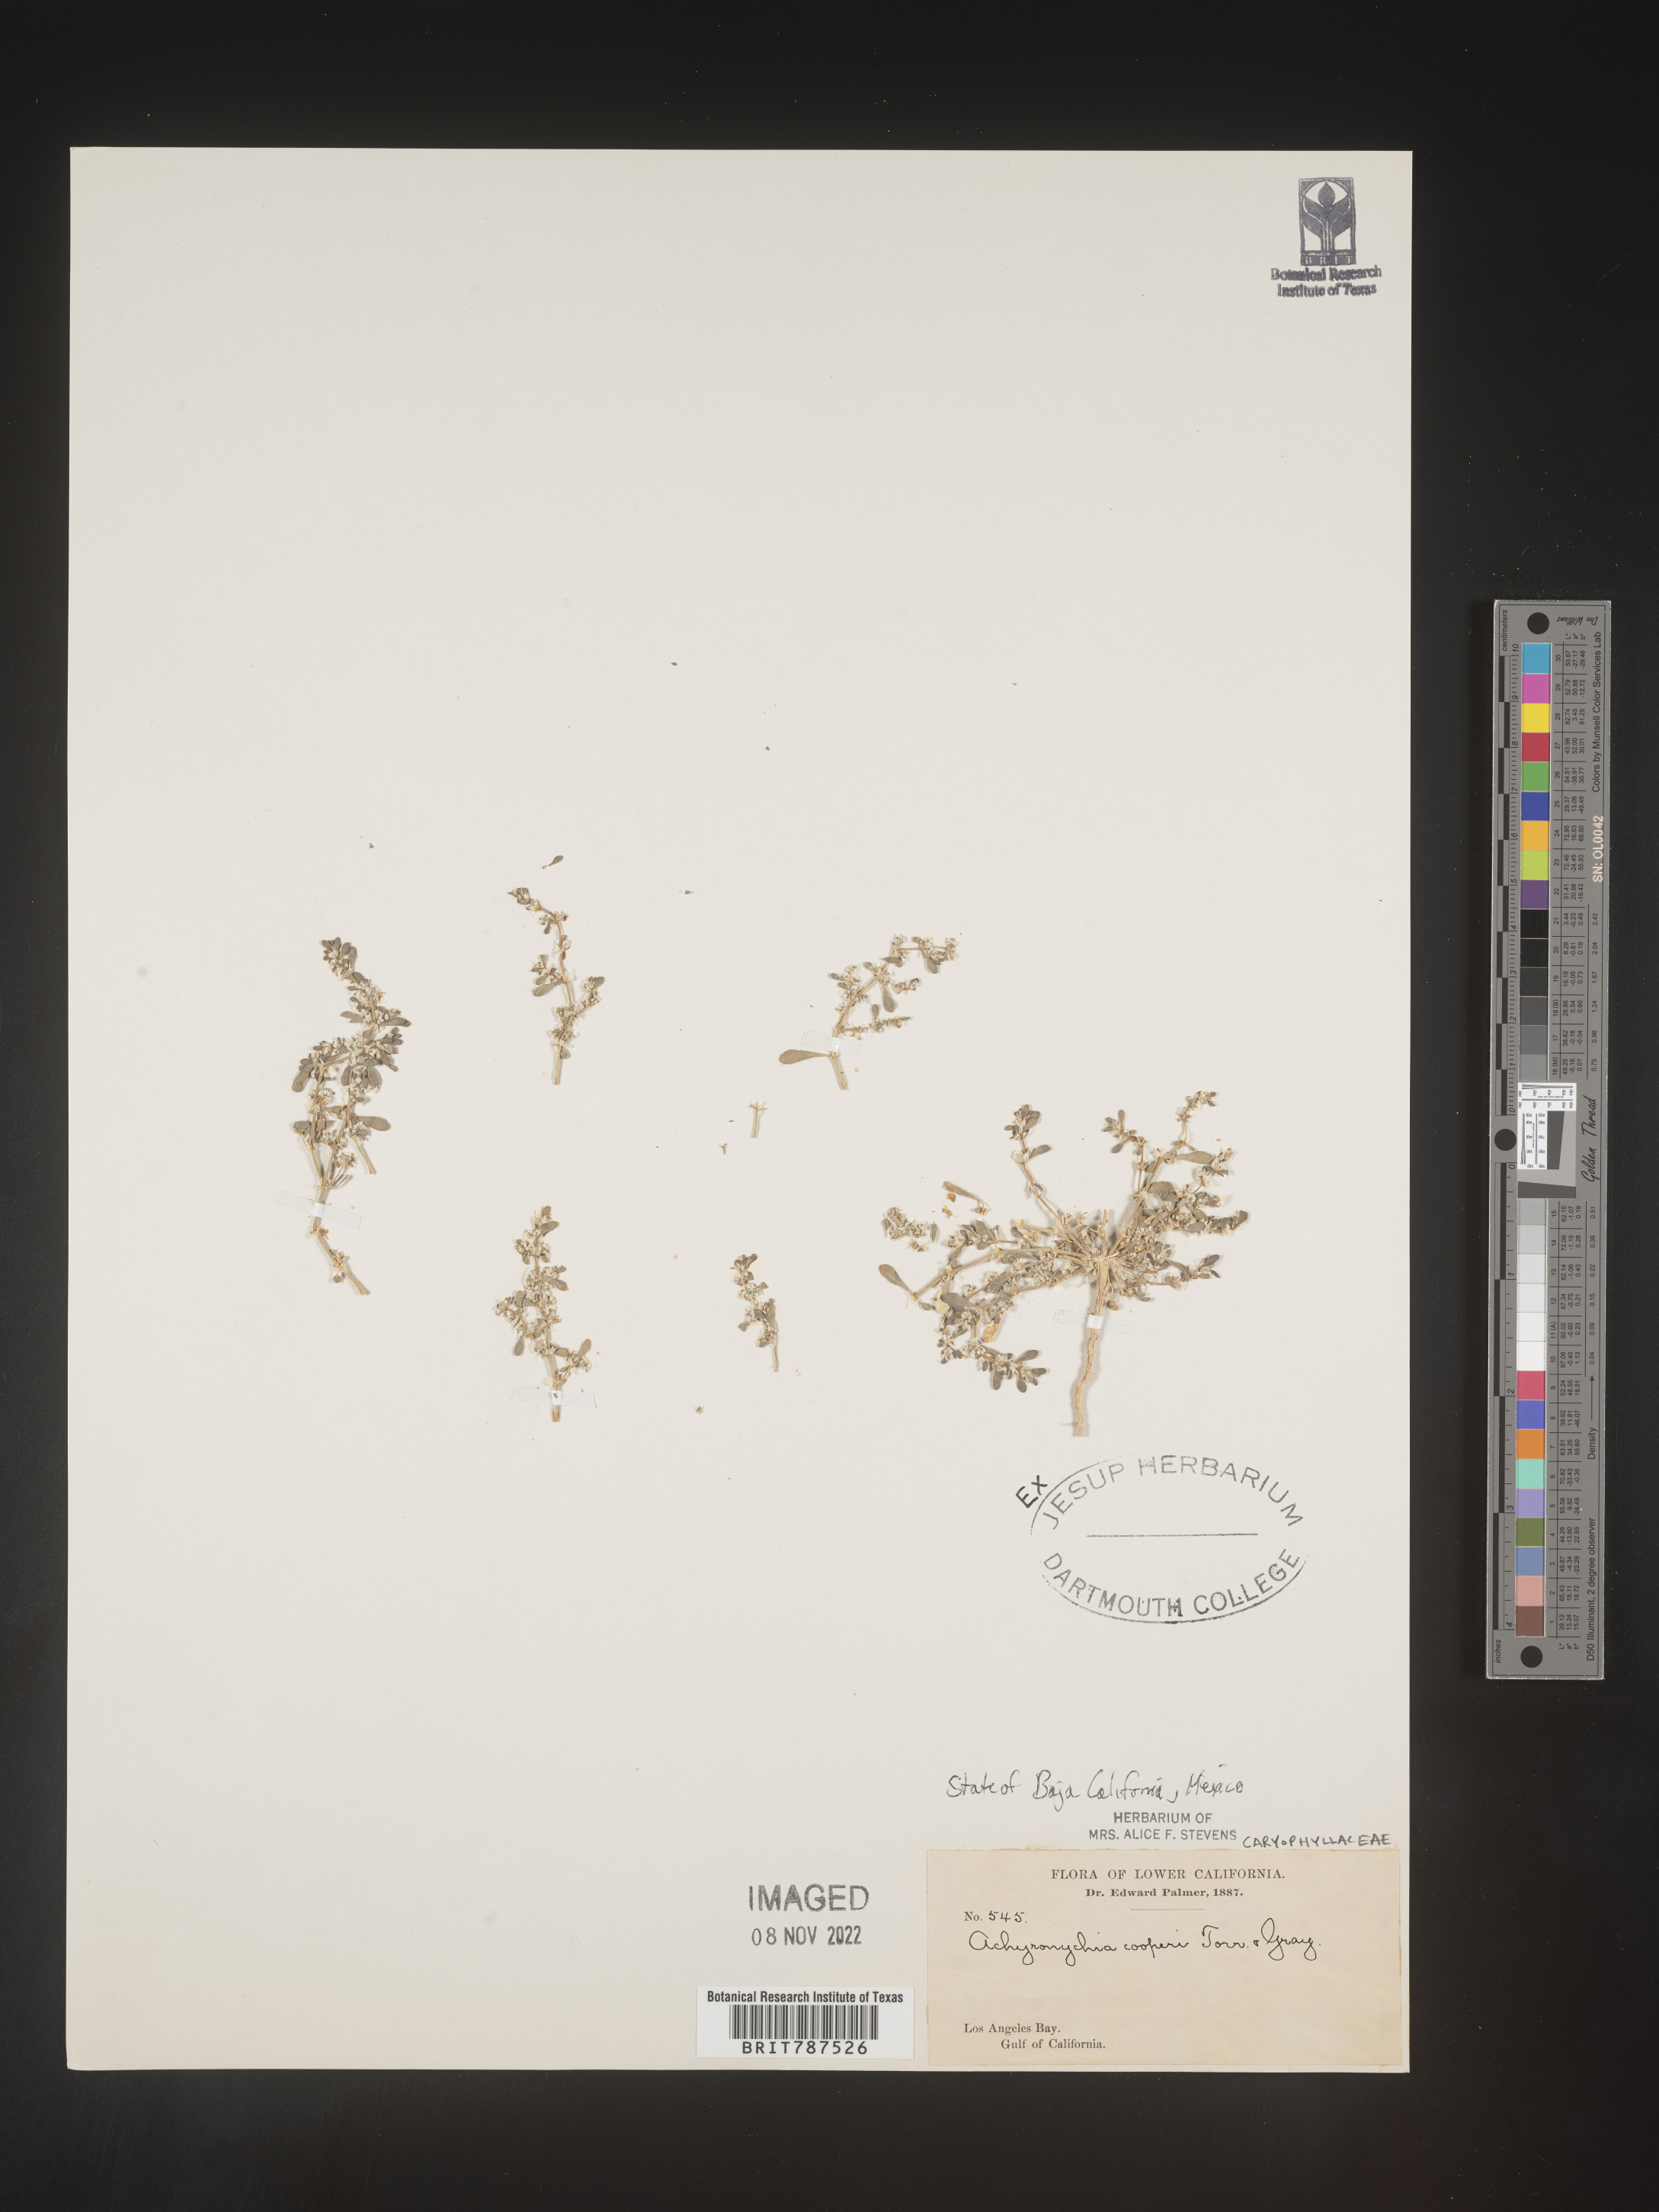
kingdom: Plantae
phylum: Tracheophyta
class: Magnoliopsida
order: Caryophyllales
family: Caryophyllaceae
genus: Achyronychia
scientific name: Achyronychia
